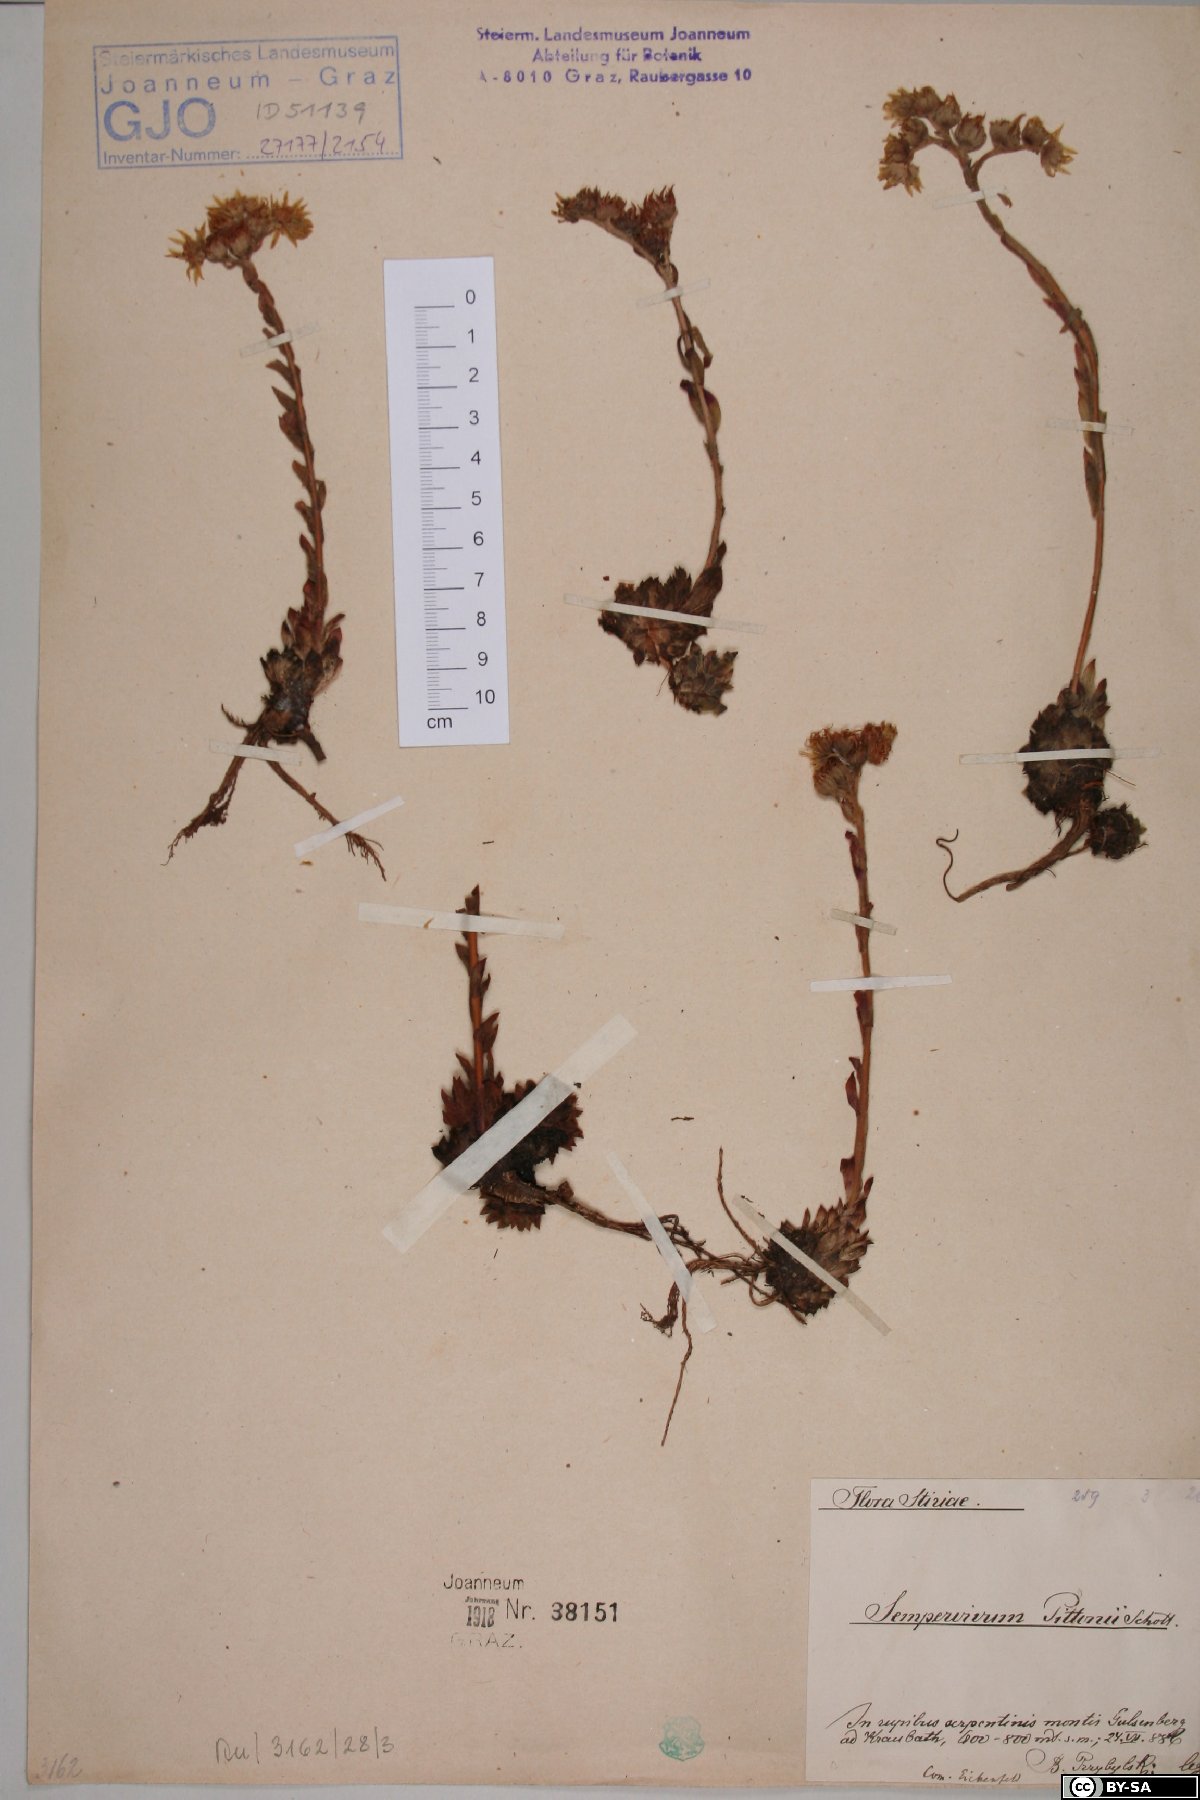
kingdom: Plantae
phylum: Tracheophyta
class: Magnoliopsida
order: Saxifragales
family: Crassulaceae
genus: Sempervivum
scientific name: Sempervivum pittonii
